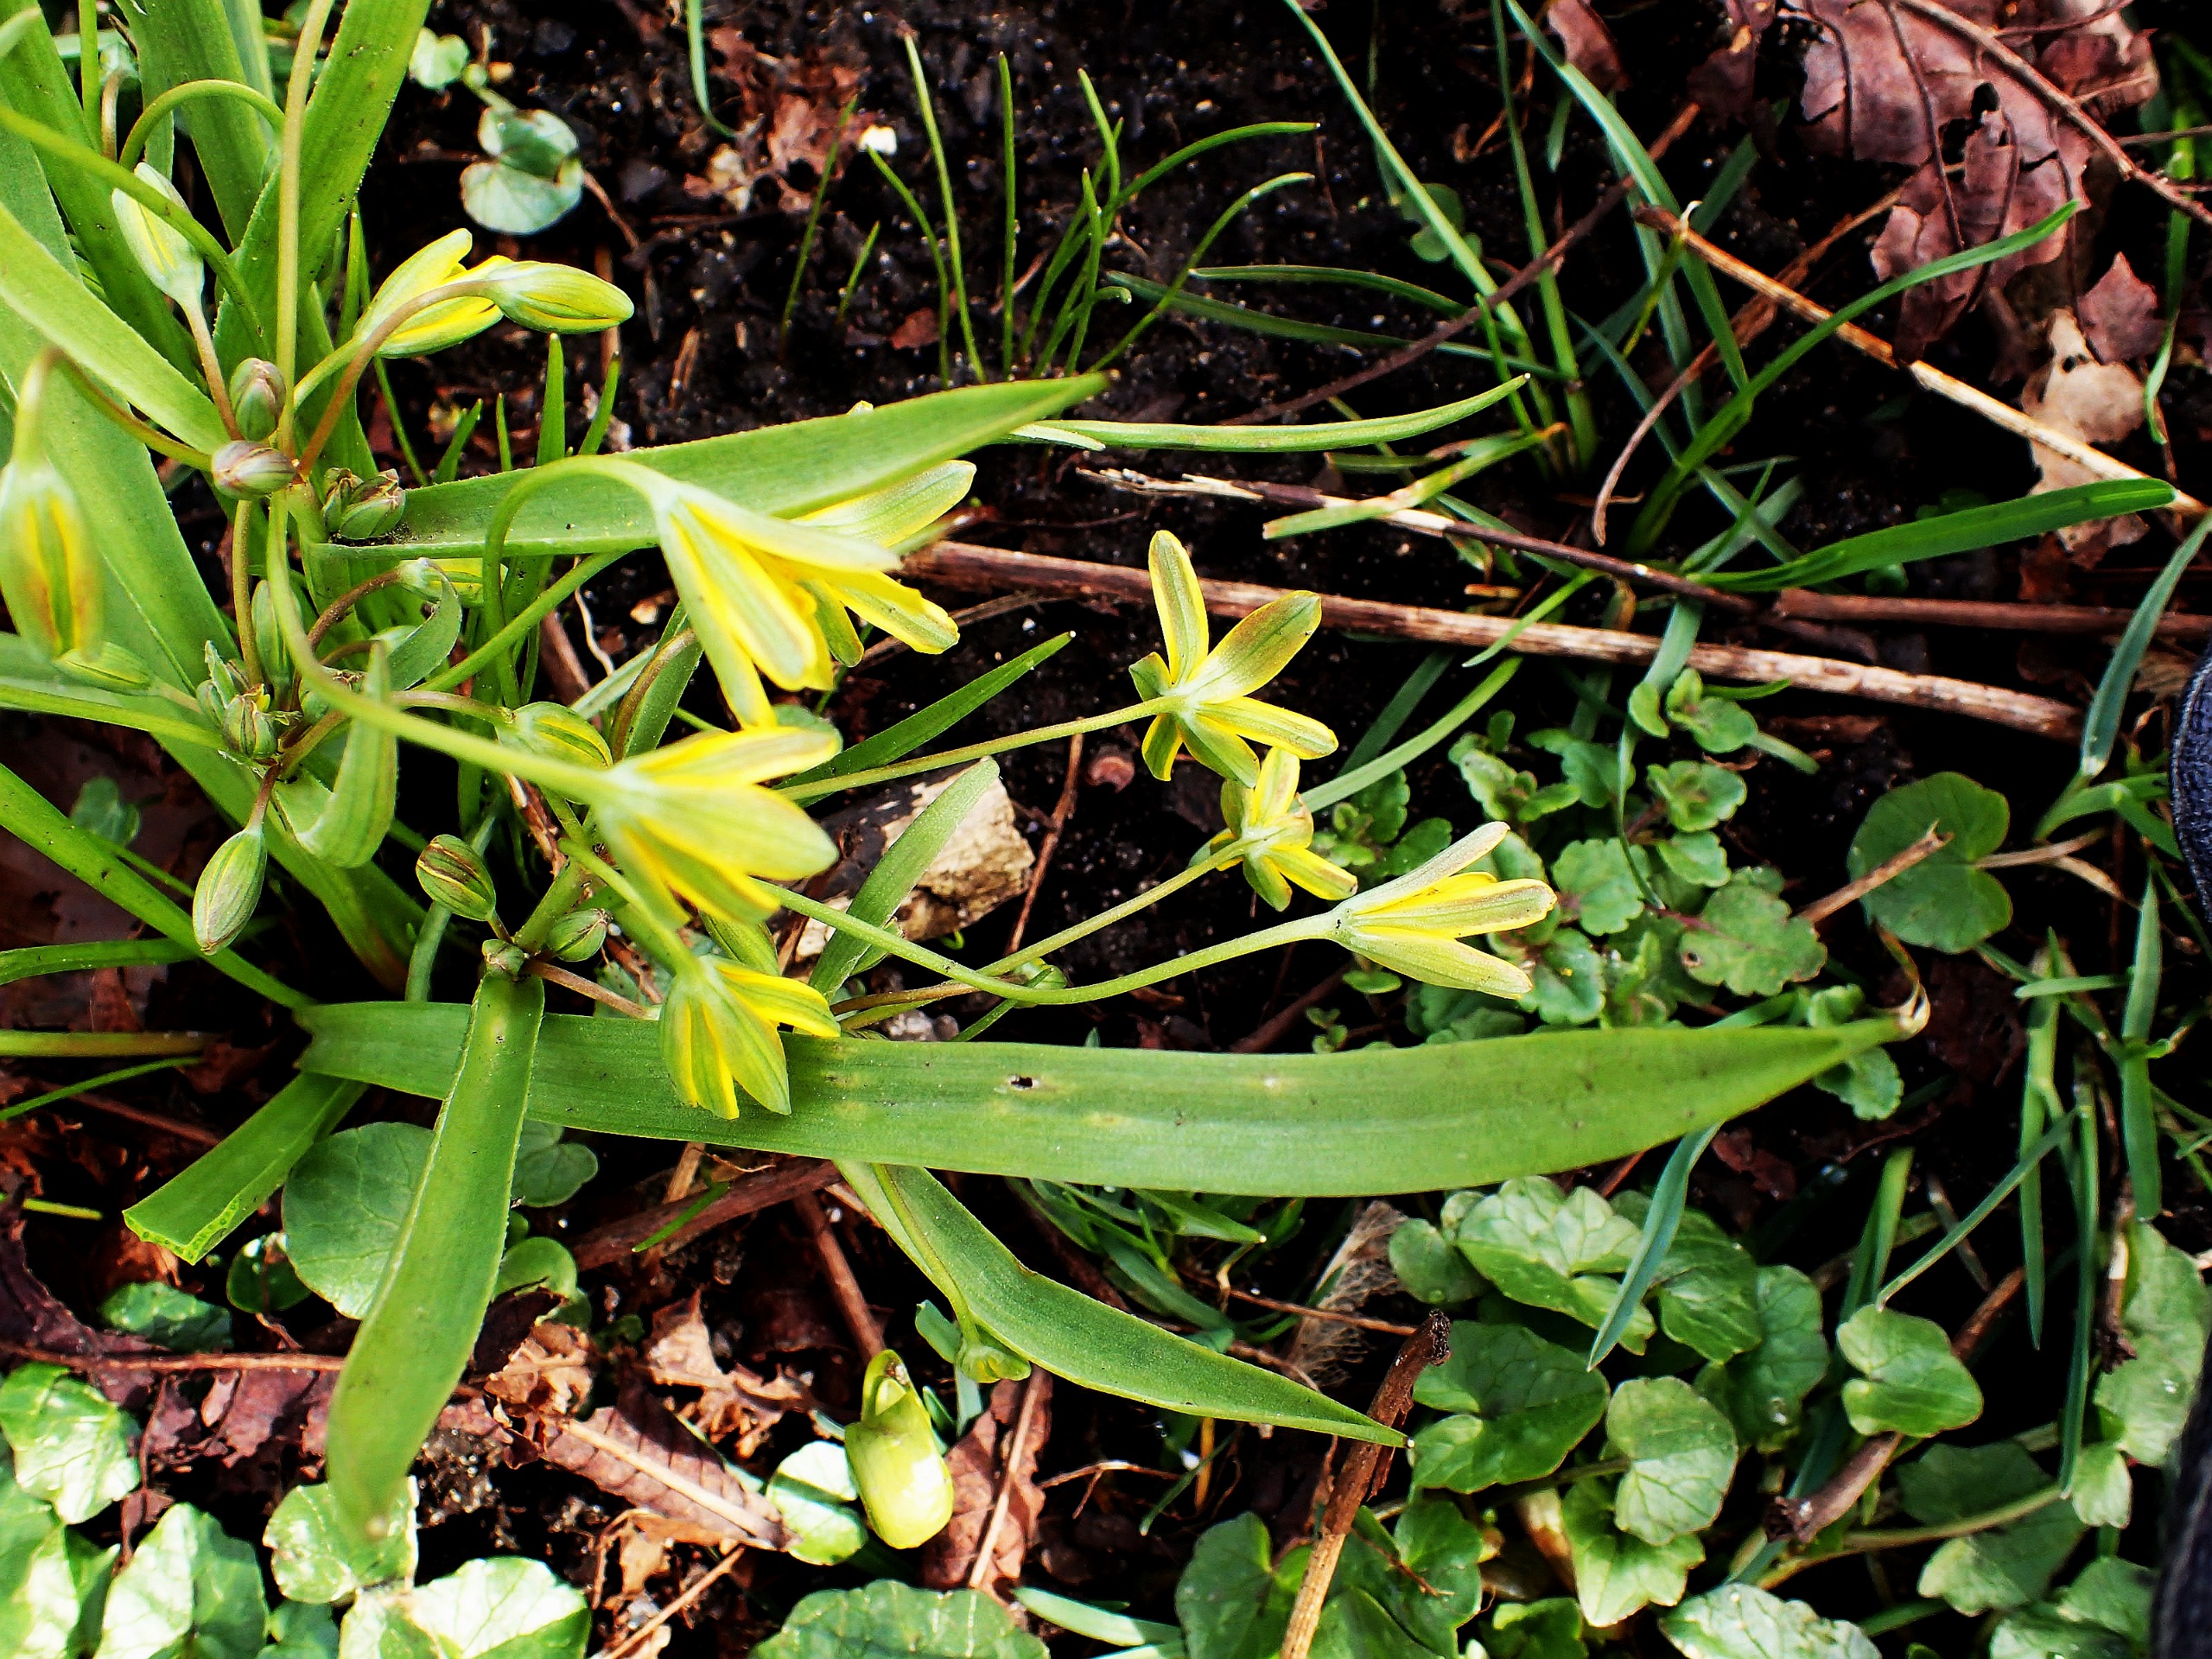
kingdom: Plantae
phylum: Tracheophyta
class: Liliopsida
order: Liliales
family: Liliaceae
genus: Gagea
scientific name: Gagea lutea
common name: Almindelig guldstjerne
